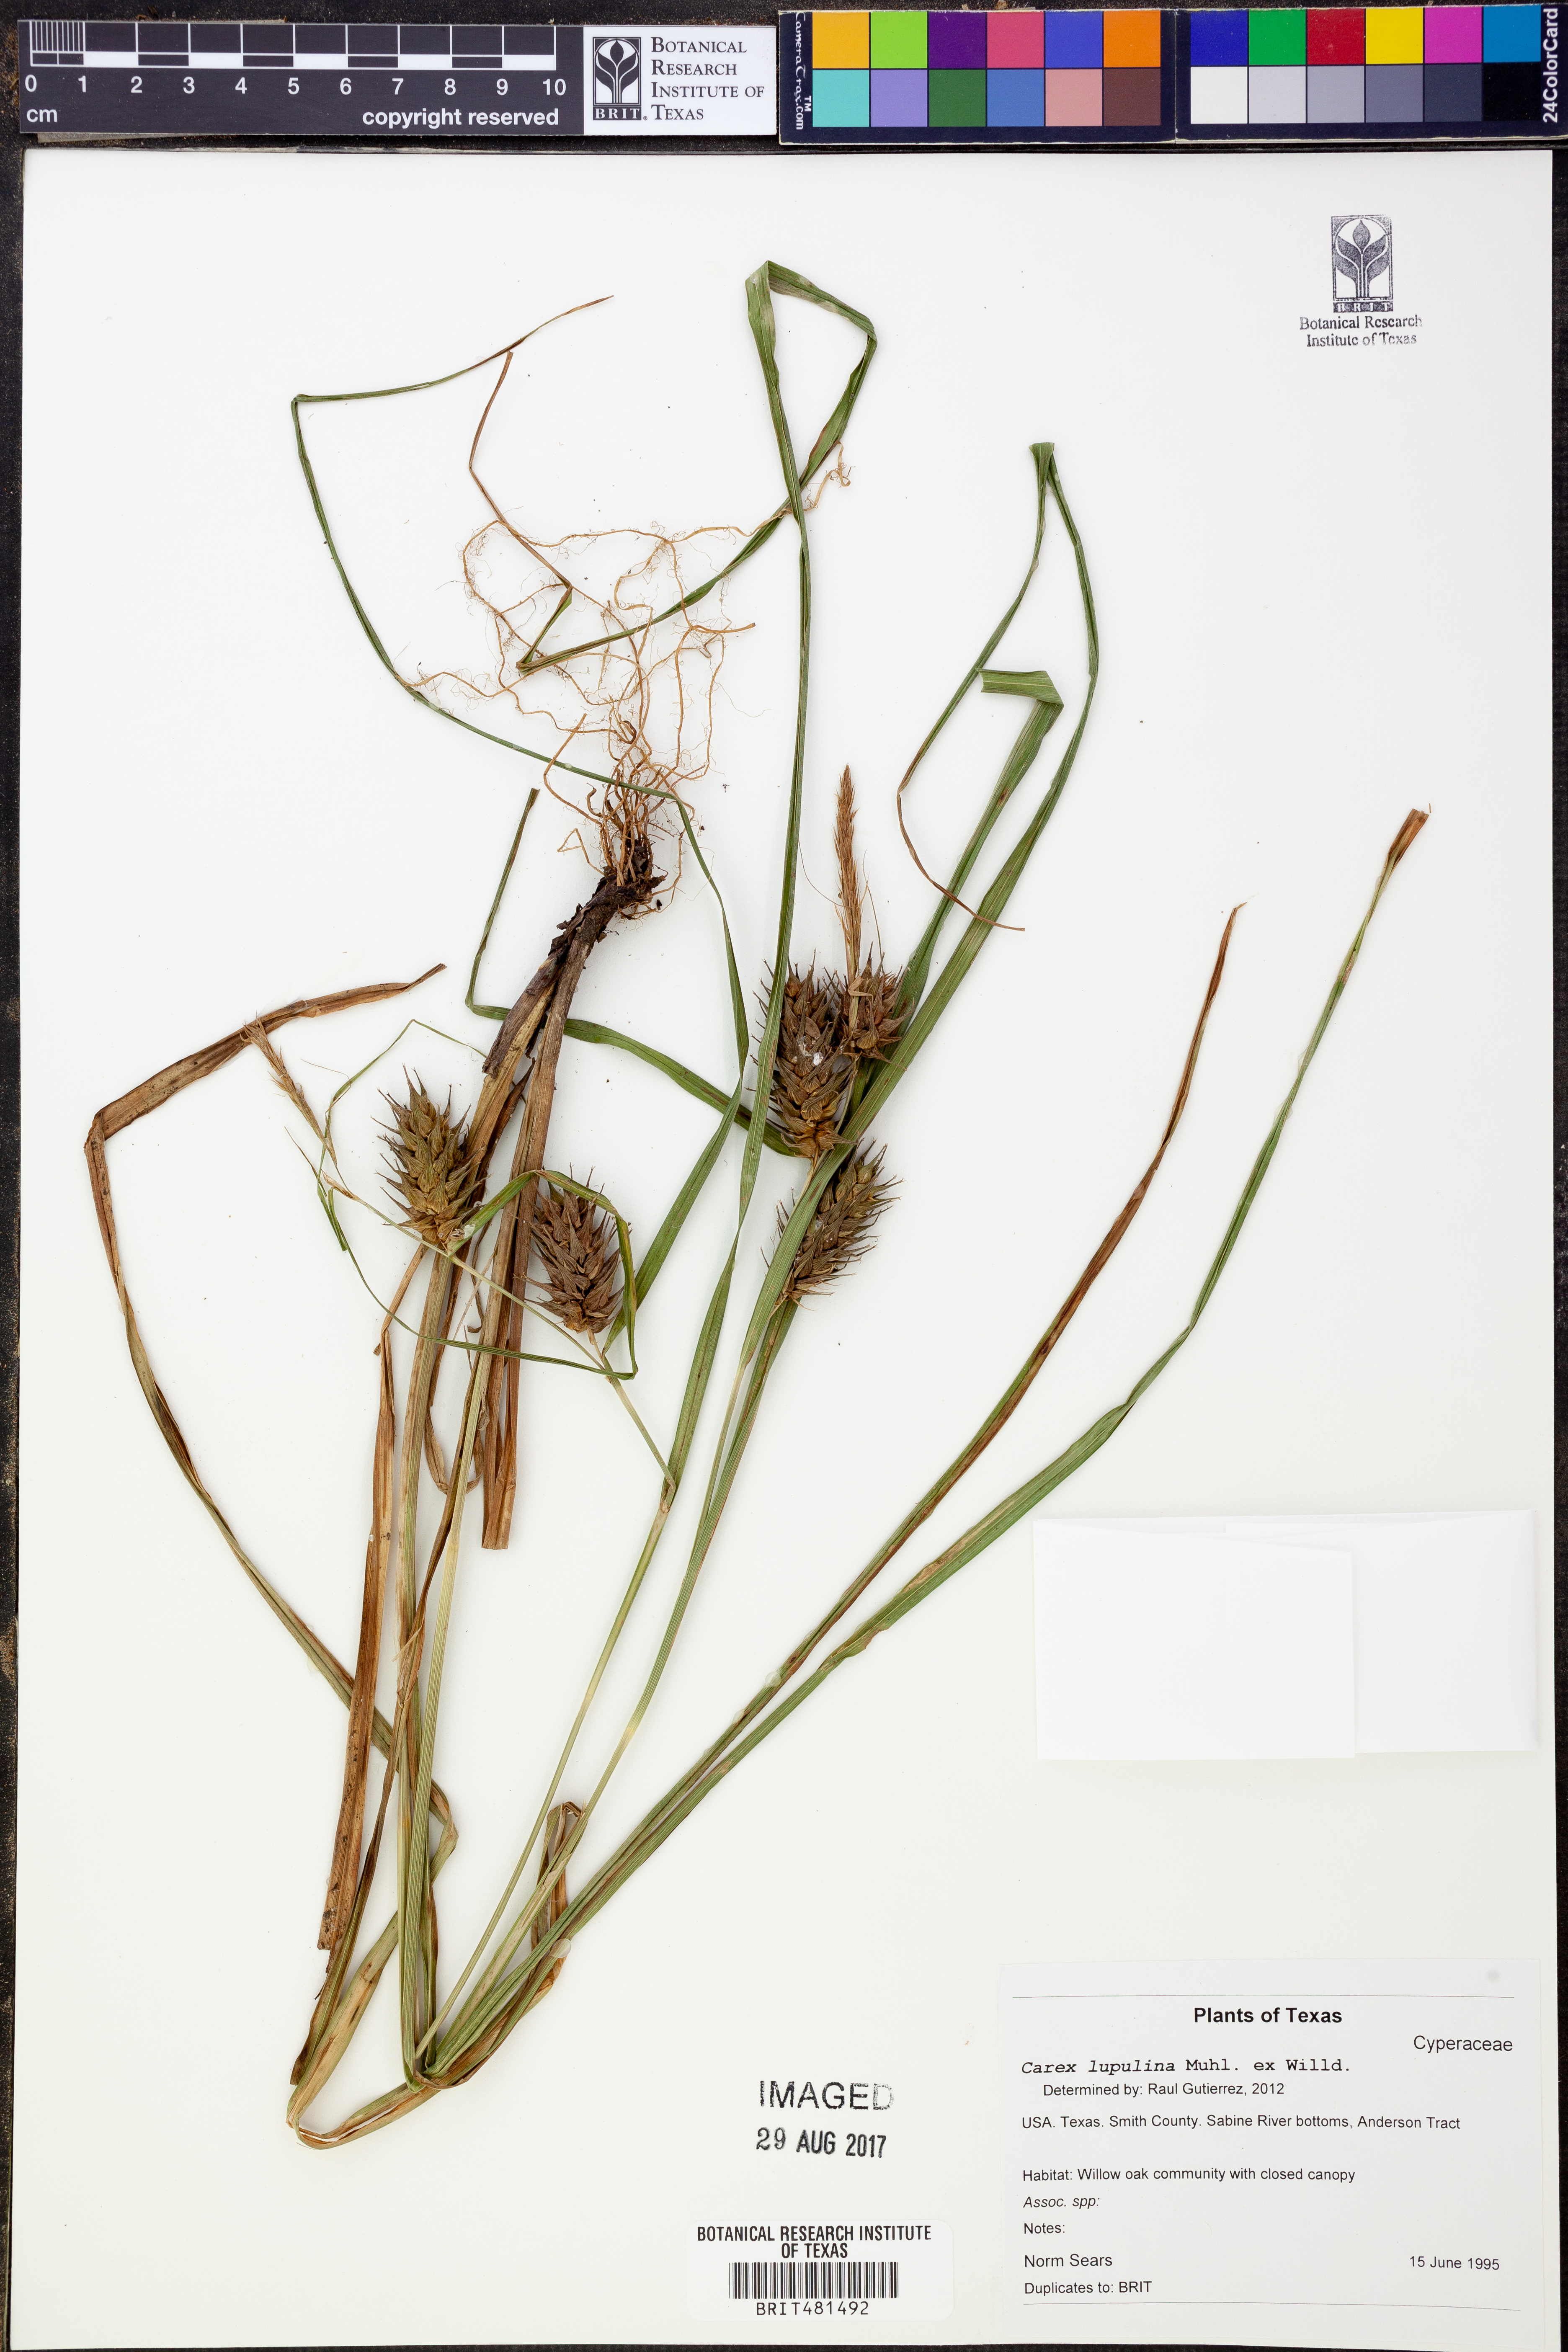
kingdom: Plantae
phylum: Tracheophyta
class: Liliopsida
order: Poales
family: Cyperaceae
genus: Carex
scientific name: Carex lupulina
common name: Hop sedge
